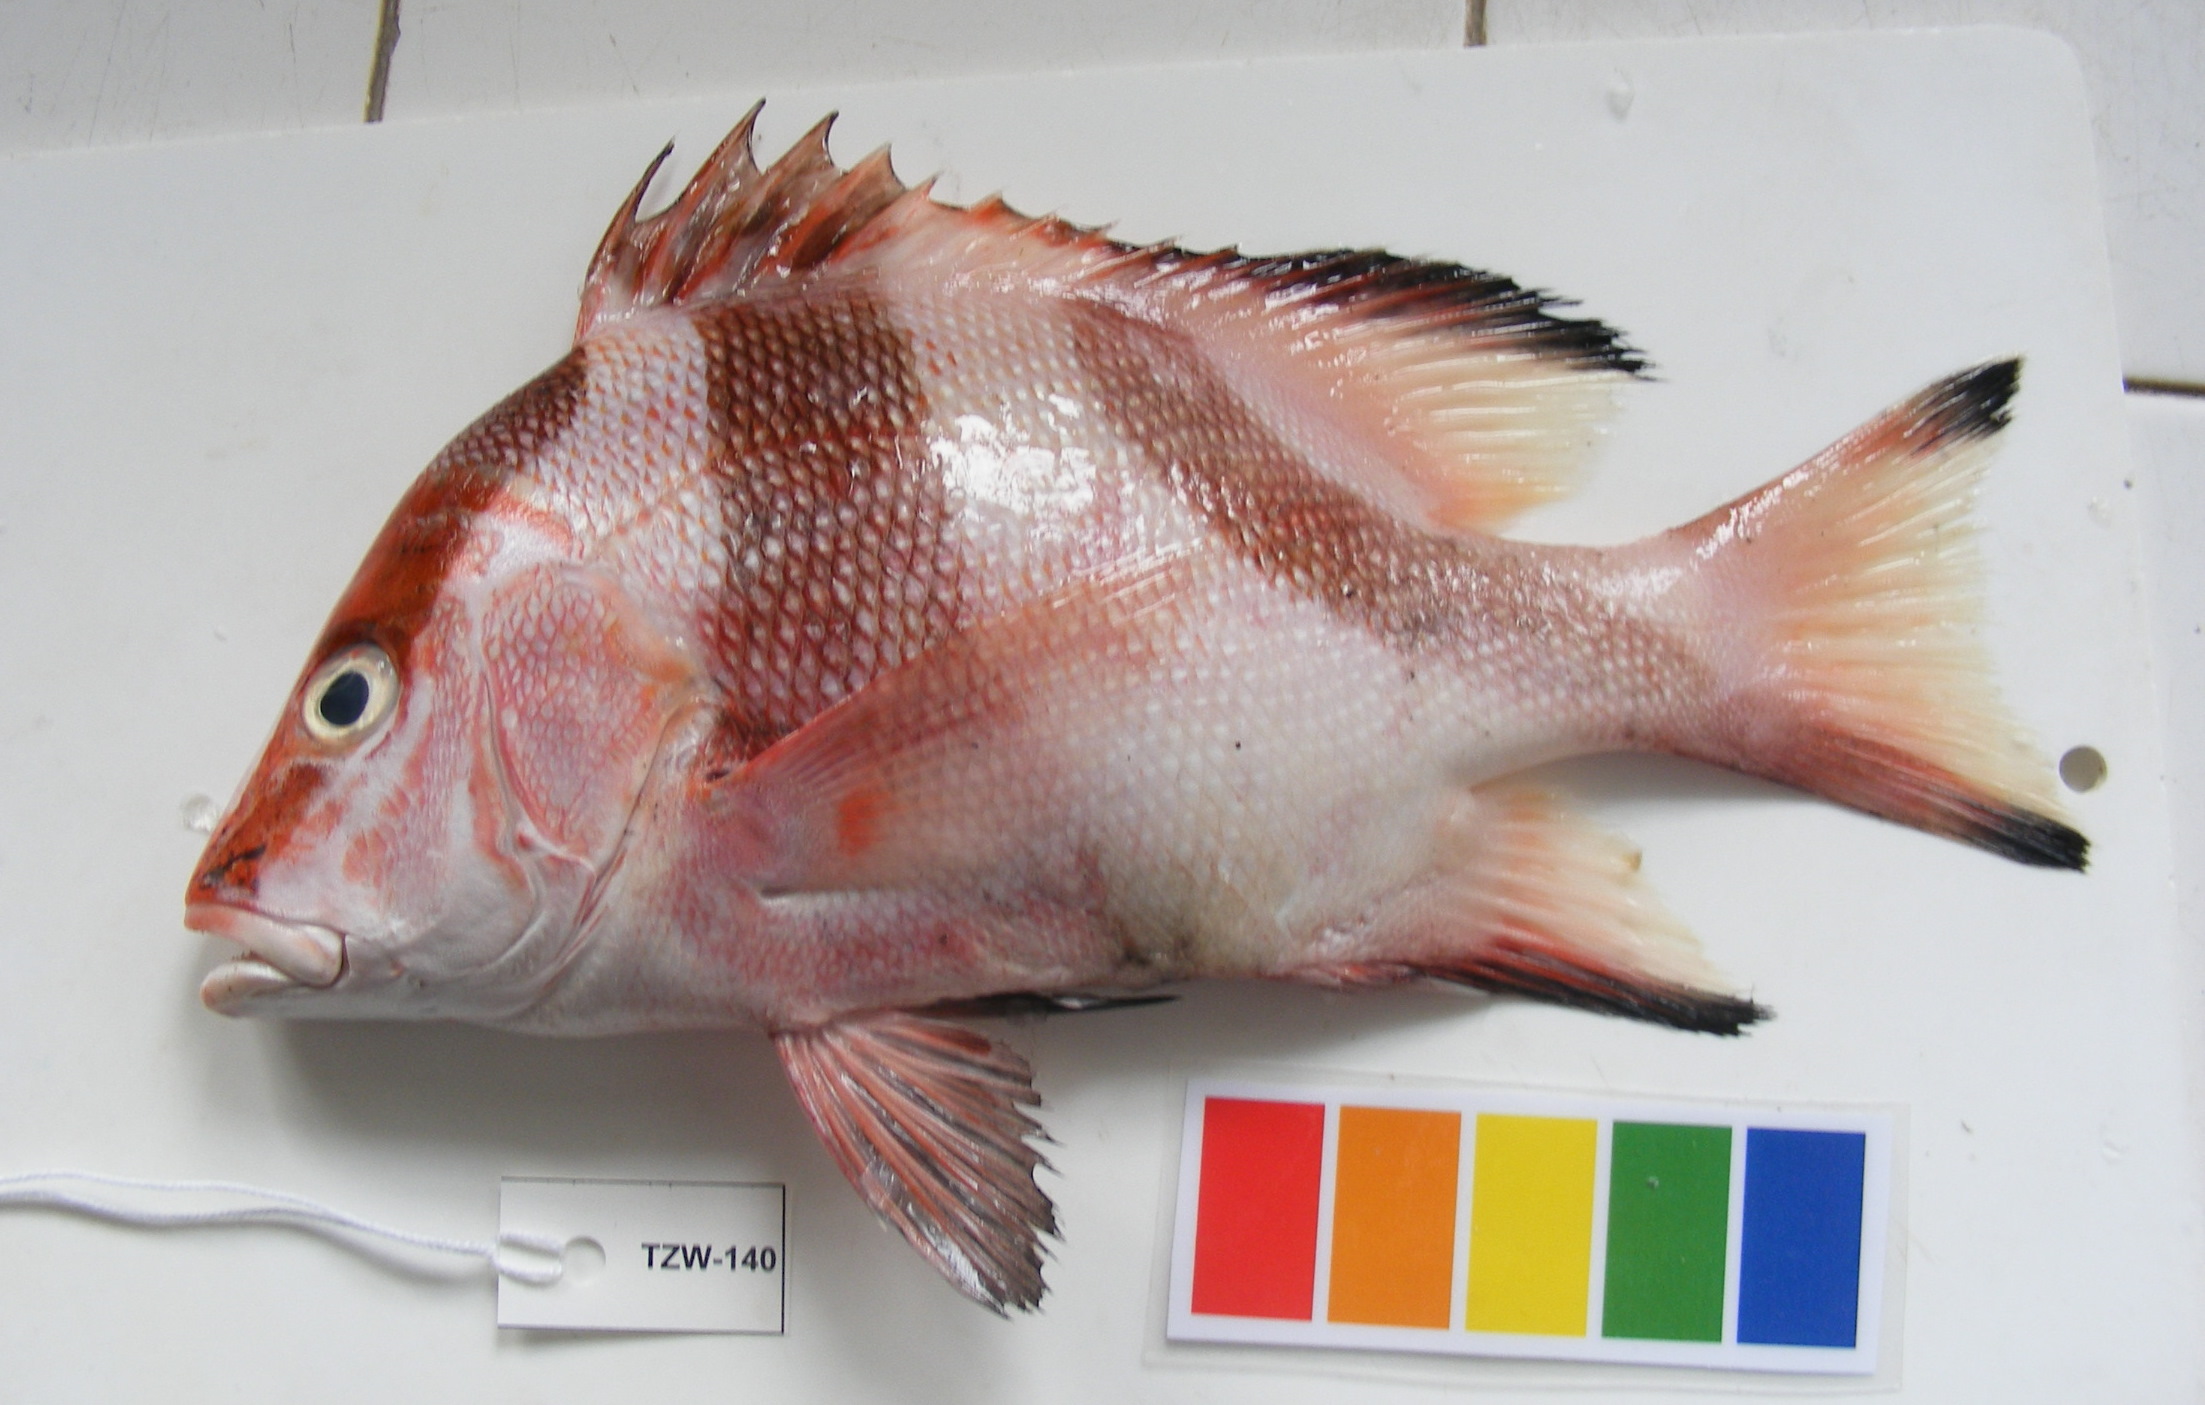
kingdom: Animalia
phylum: Chordata
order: Perciformes
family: Lutjanidae
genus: Lutjanus
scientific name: Lutjanus sebae
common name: Emperor red snapper
